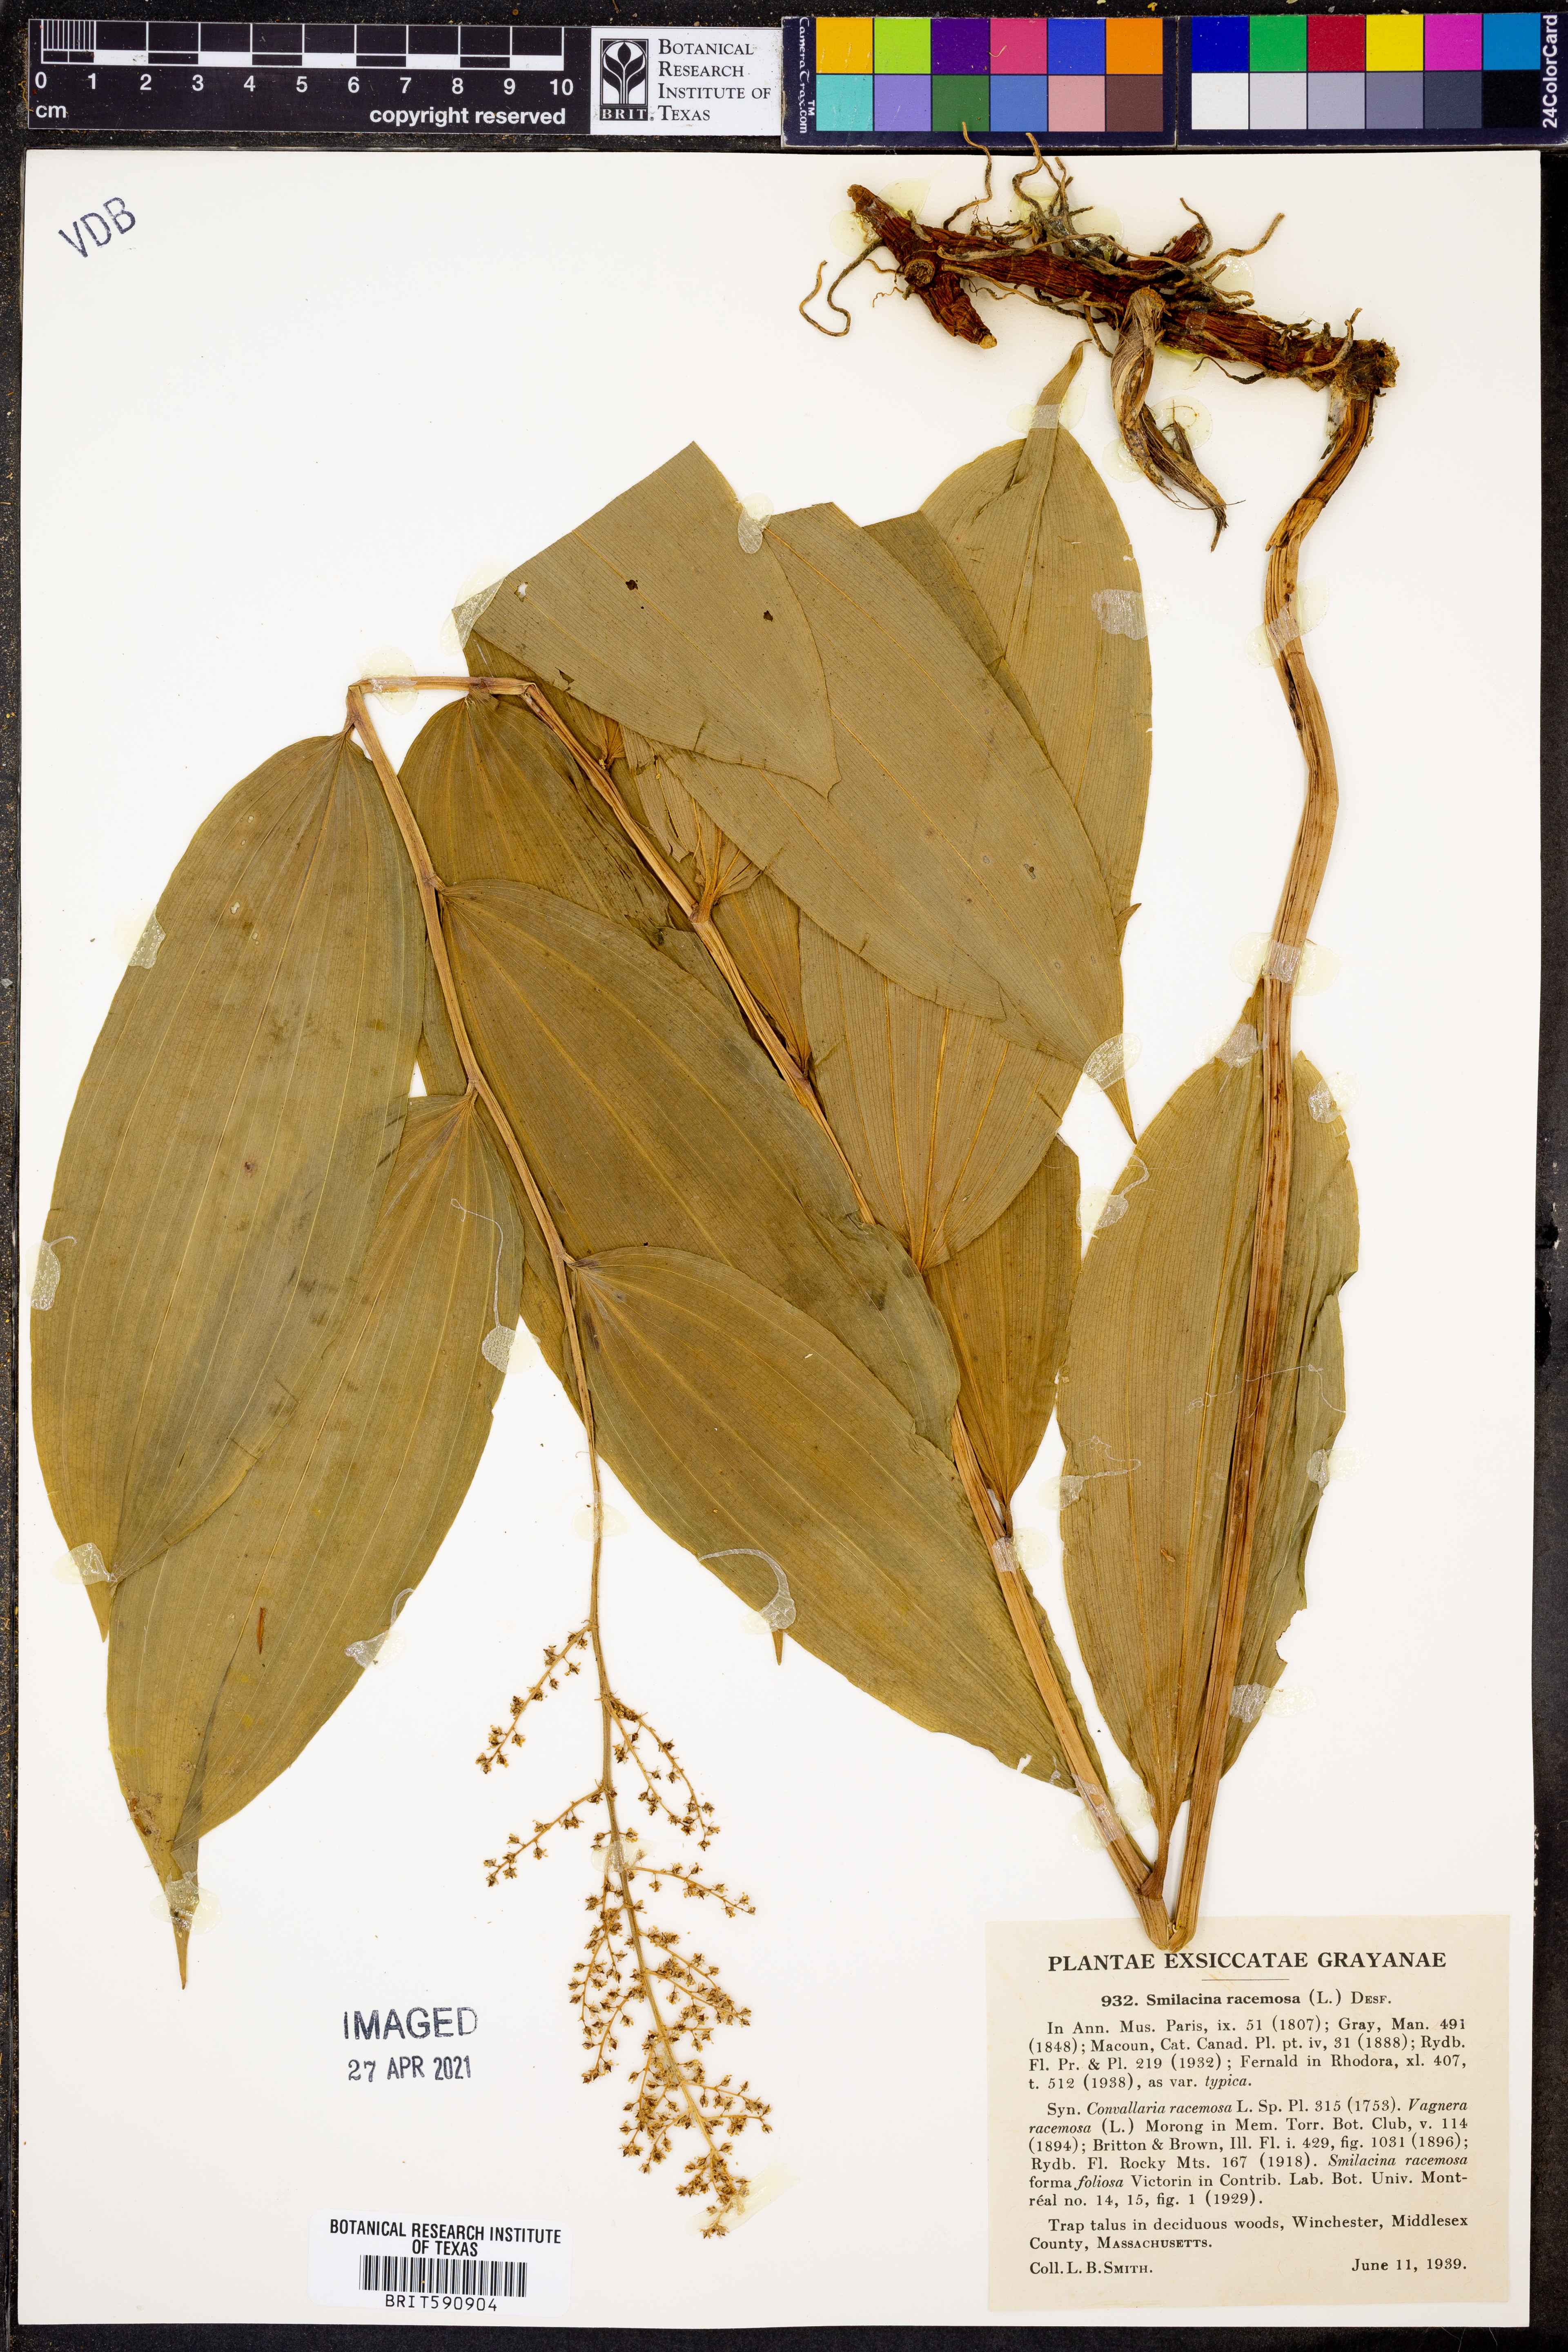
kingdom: Plantae
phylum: Tracheophyta
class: Liliopsida
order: Asparagales
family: Asparagaceae
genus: Maianthemum
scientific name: Maianthemum racemosum
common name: False spikenard
